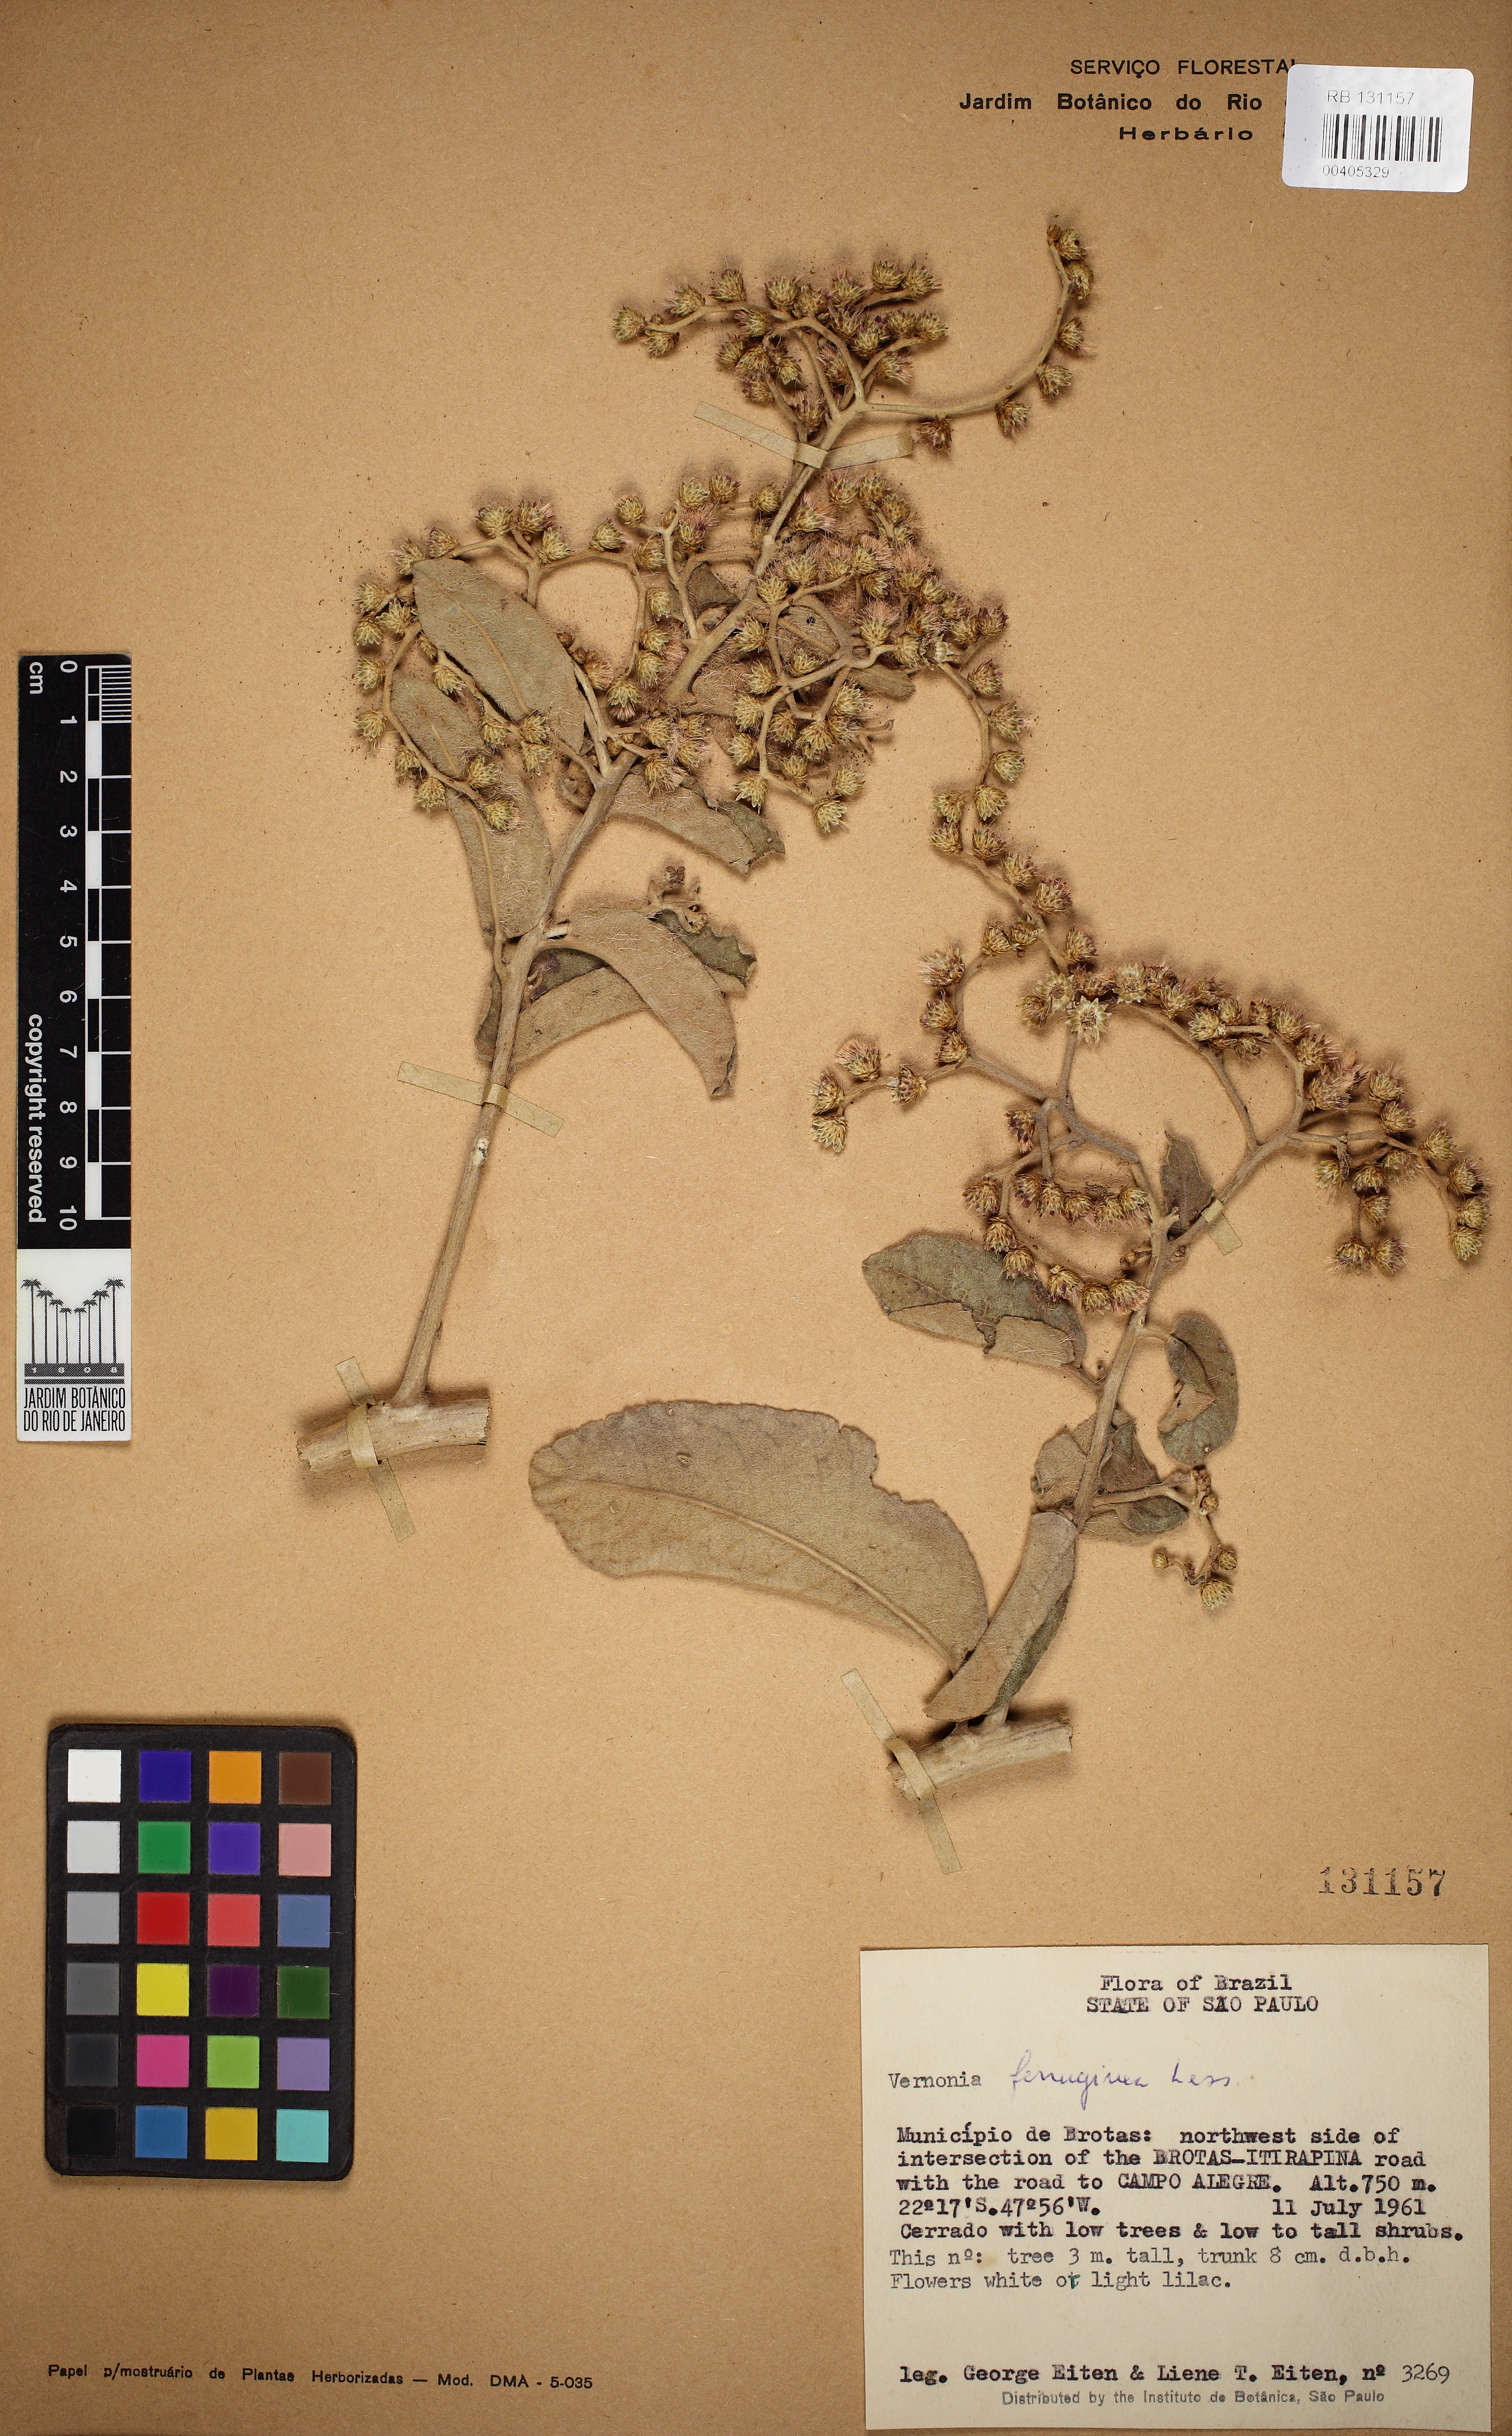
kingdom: Plantae
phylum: Tracheophyta
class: Magnoliopsida
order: Asterales
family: Asteraceae
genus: Vernonanthura
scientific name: Vernonanthura ferruginea
